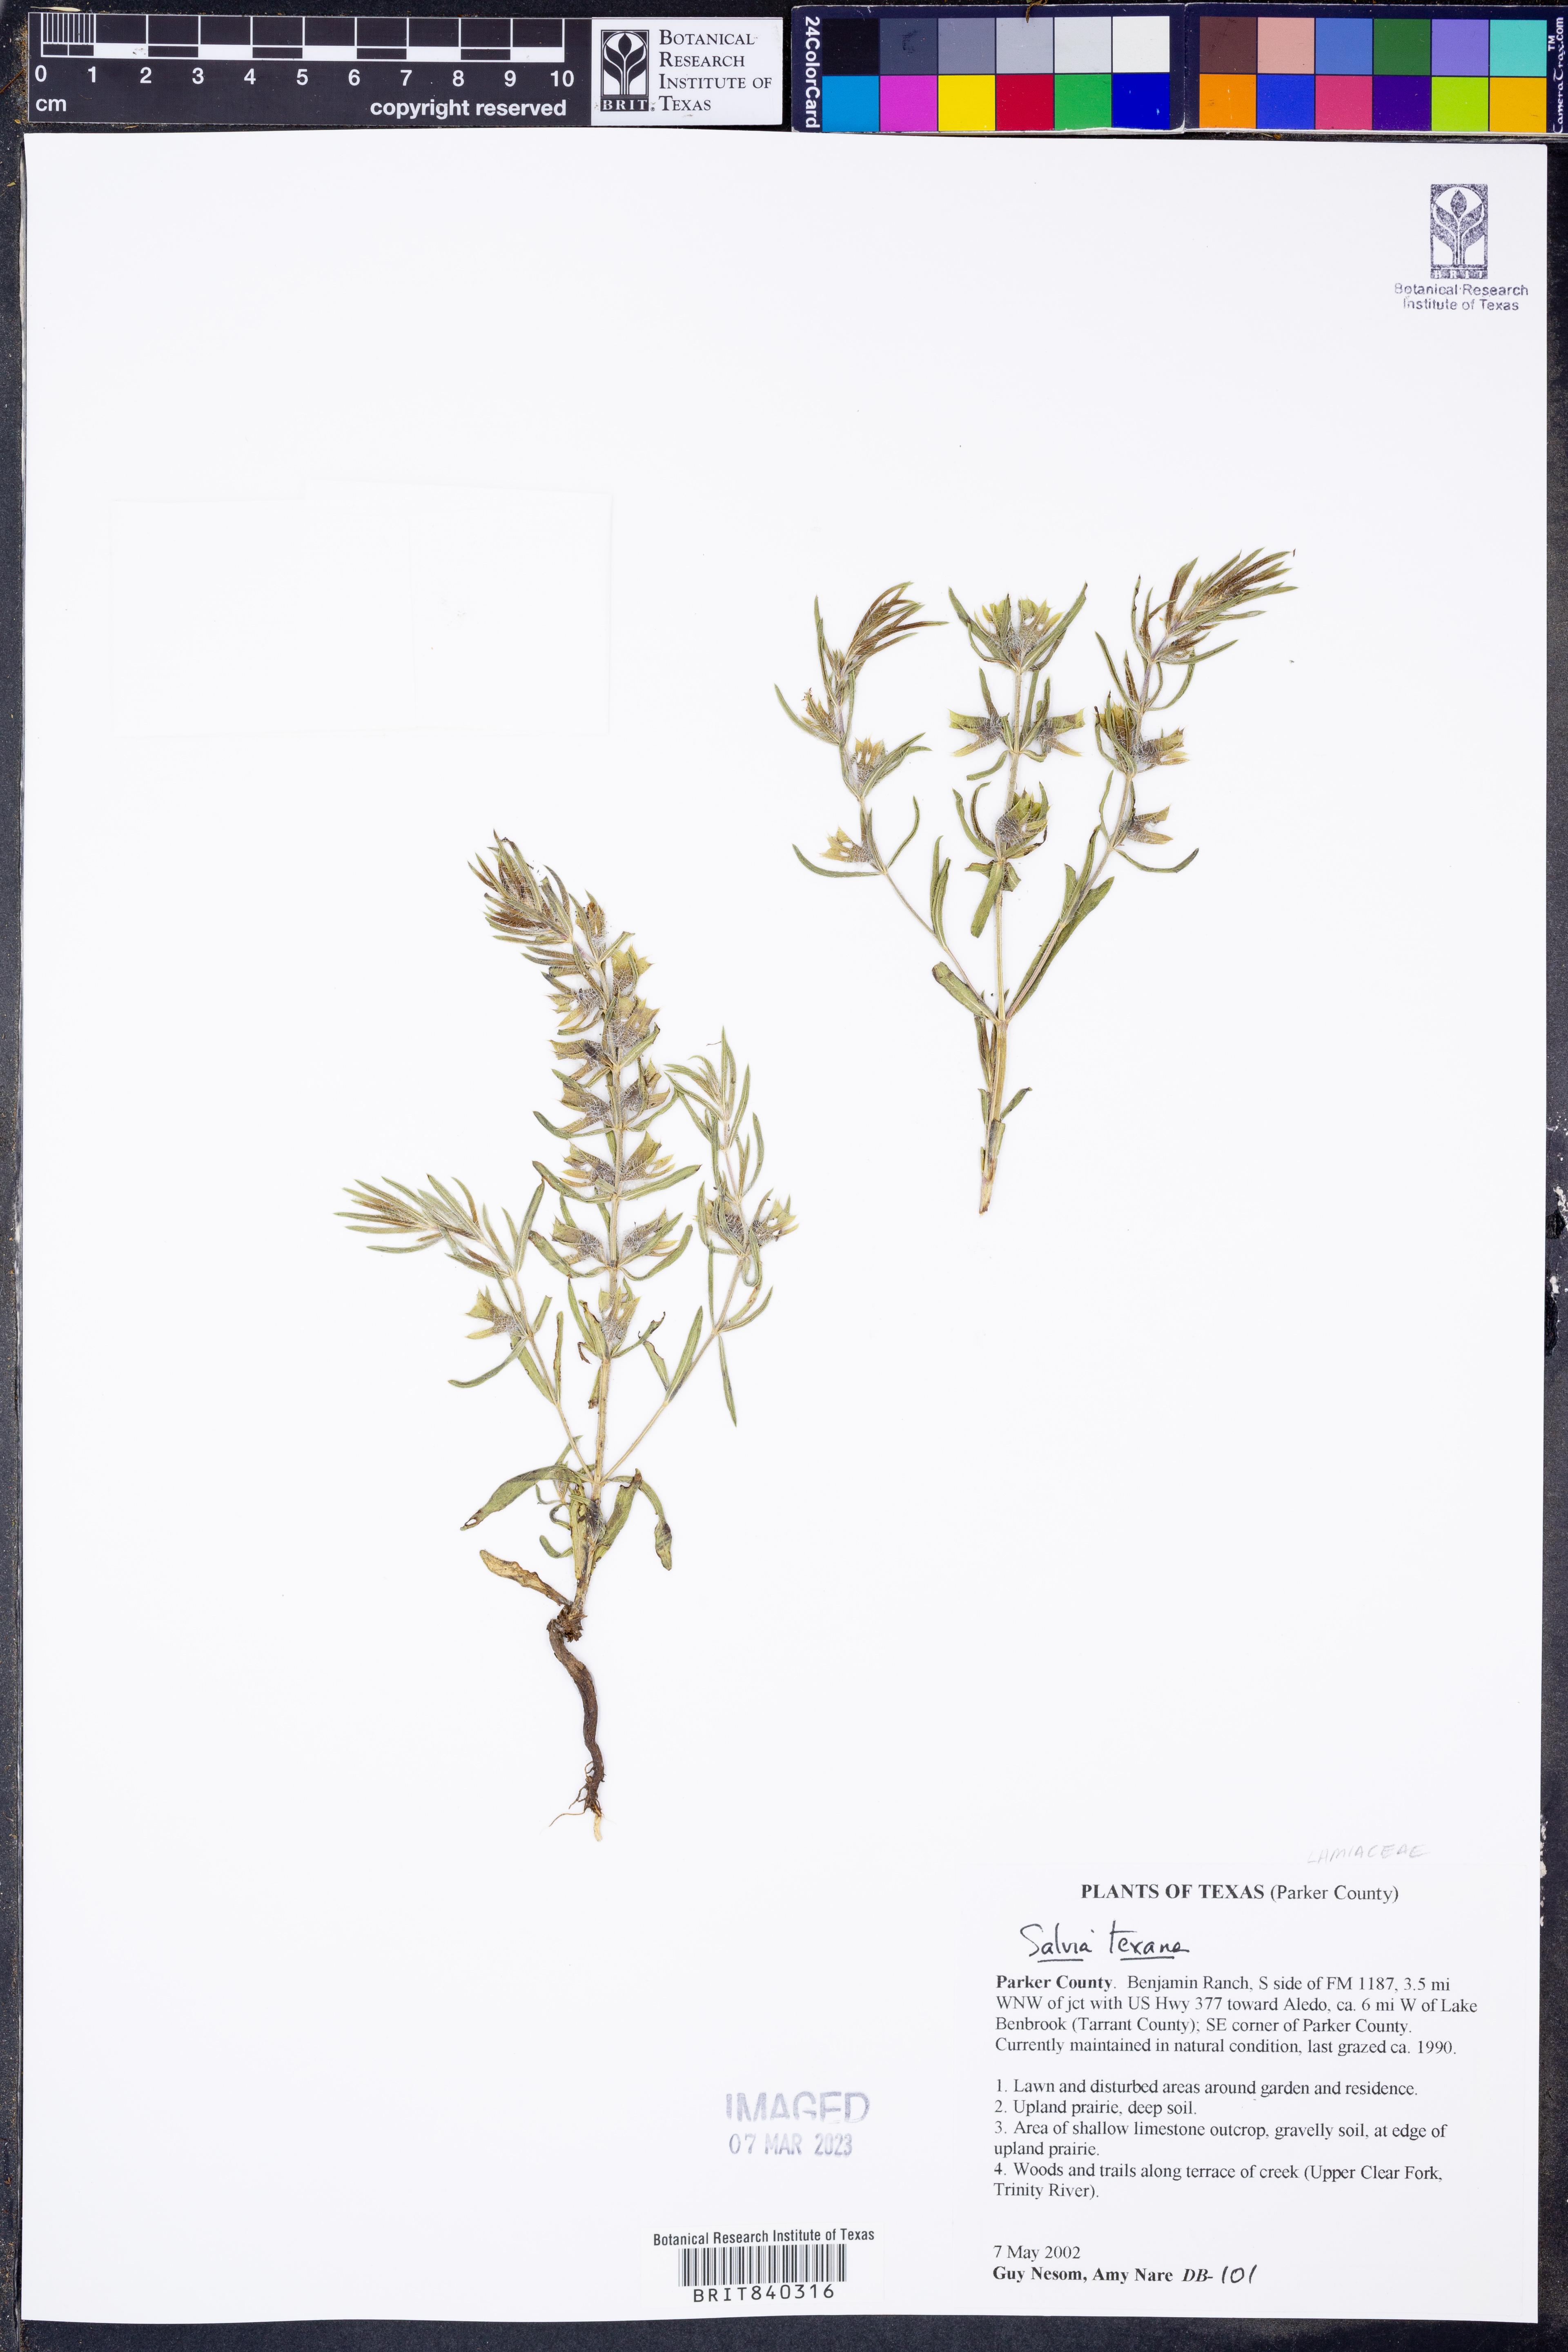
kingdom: Plantae
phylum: Tracheophyta
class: Magnoliopsida
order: Lamiales
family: Lamiaceae
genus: Salvia
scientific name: Salvia texana
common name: Texas sage
